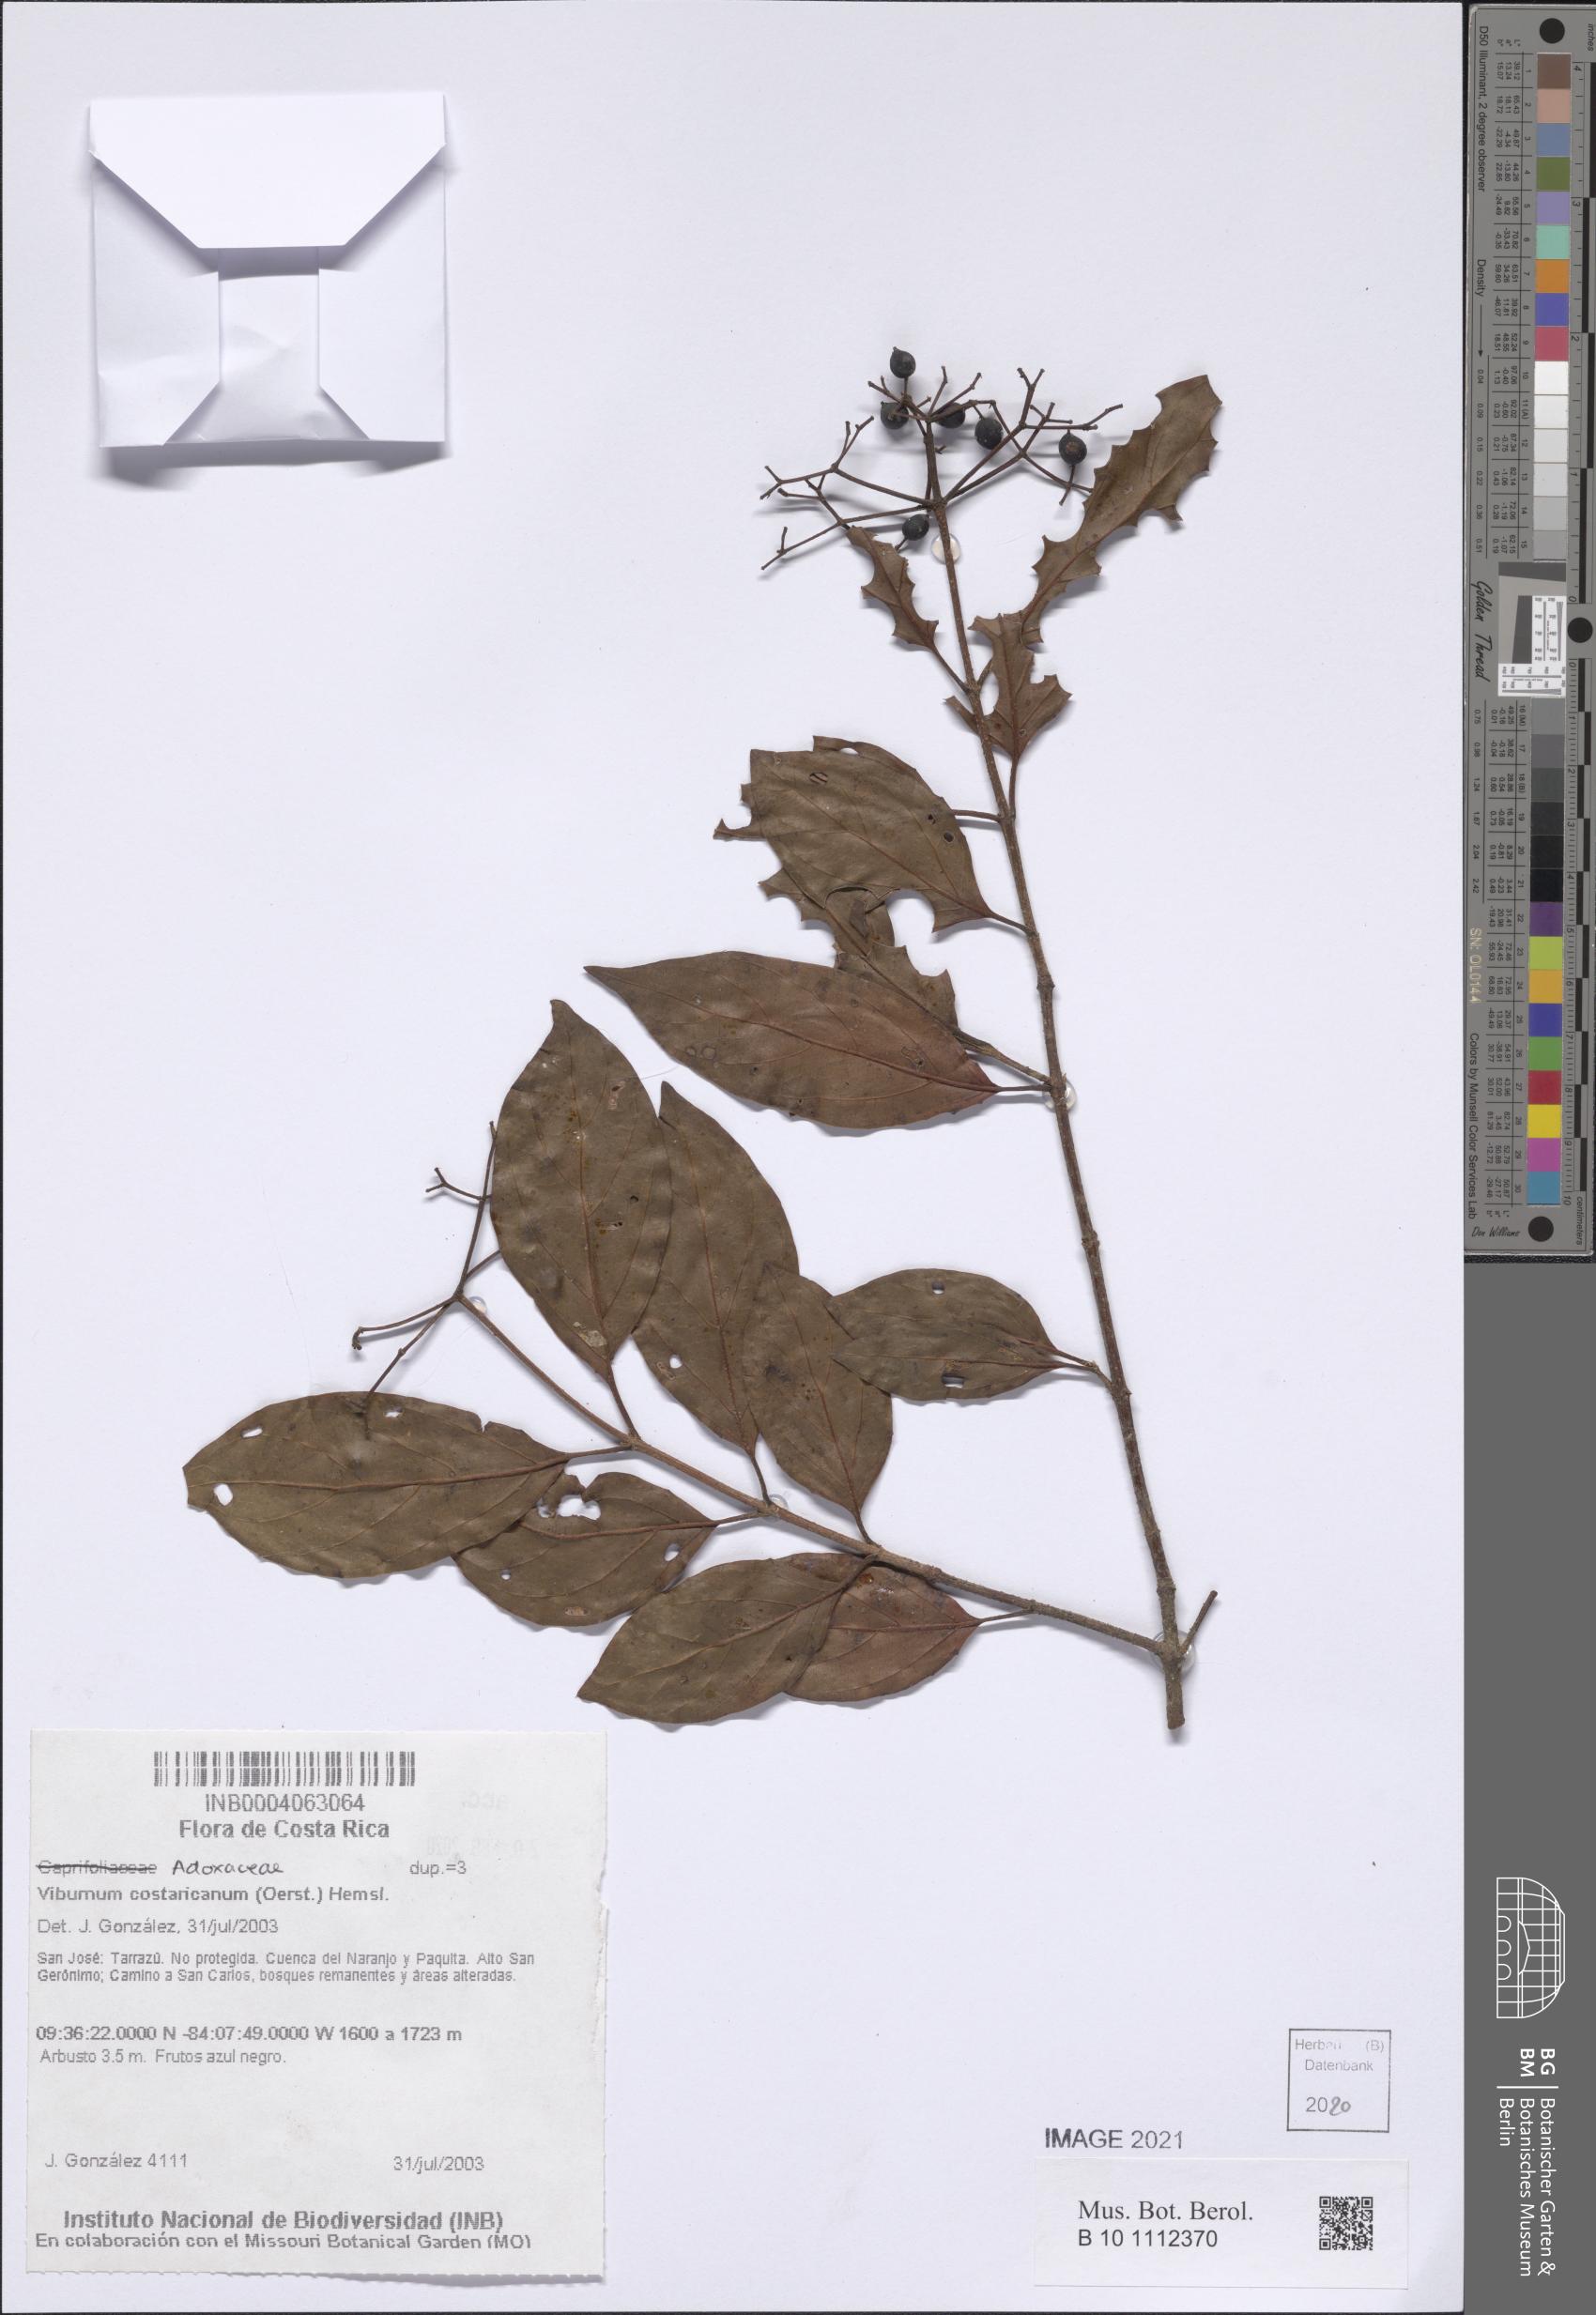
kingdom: Plantae
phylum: Tracheophyta
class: Magnoliopsida
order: Dipsacales
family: Viburnaceae
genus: Viburnum
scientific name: Viburnum costaricanum
